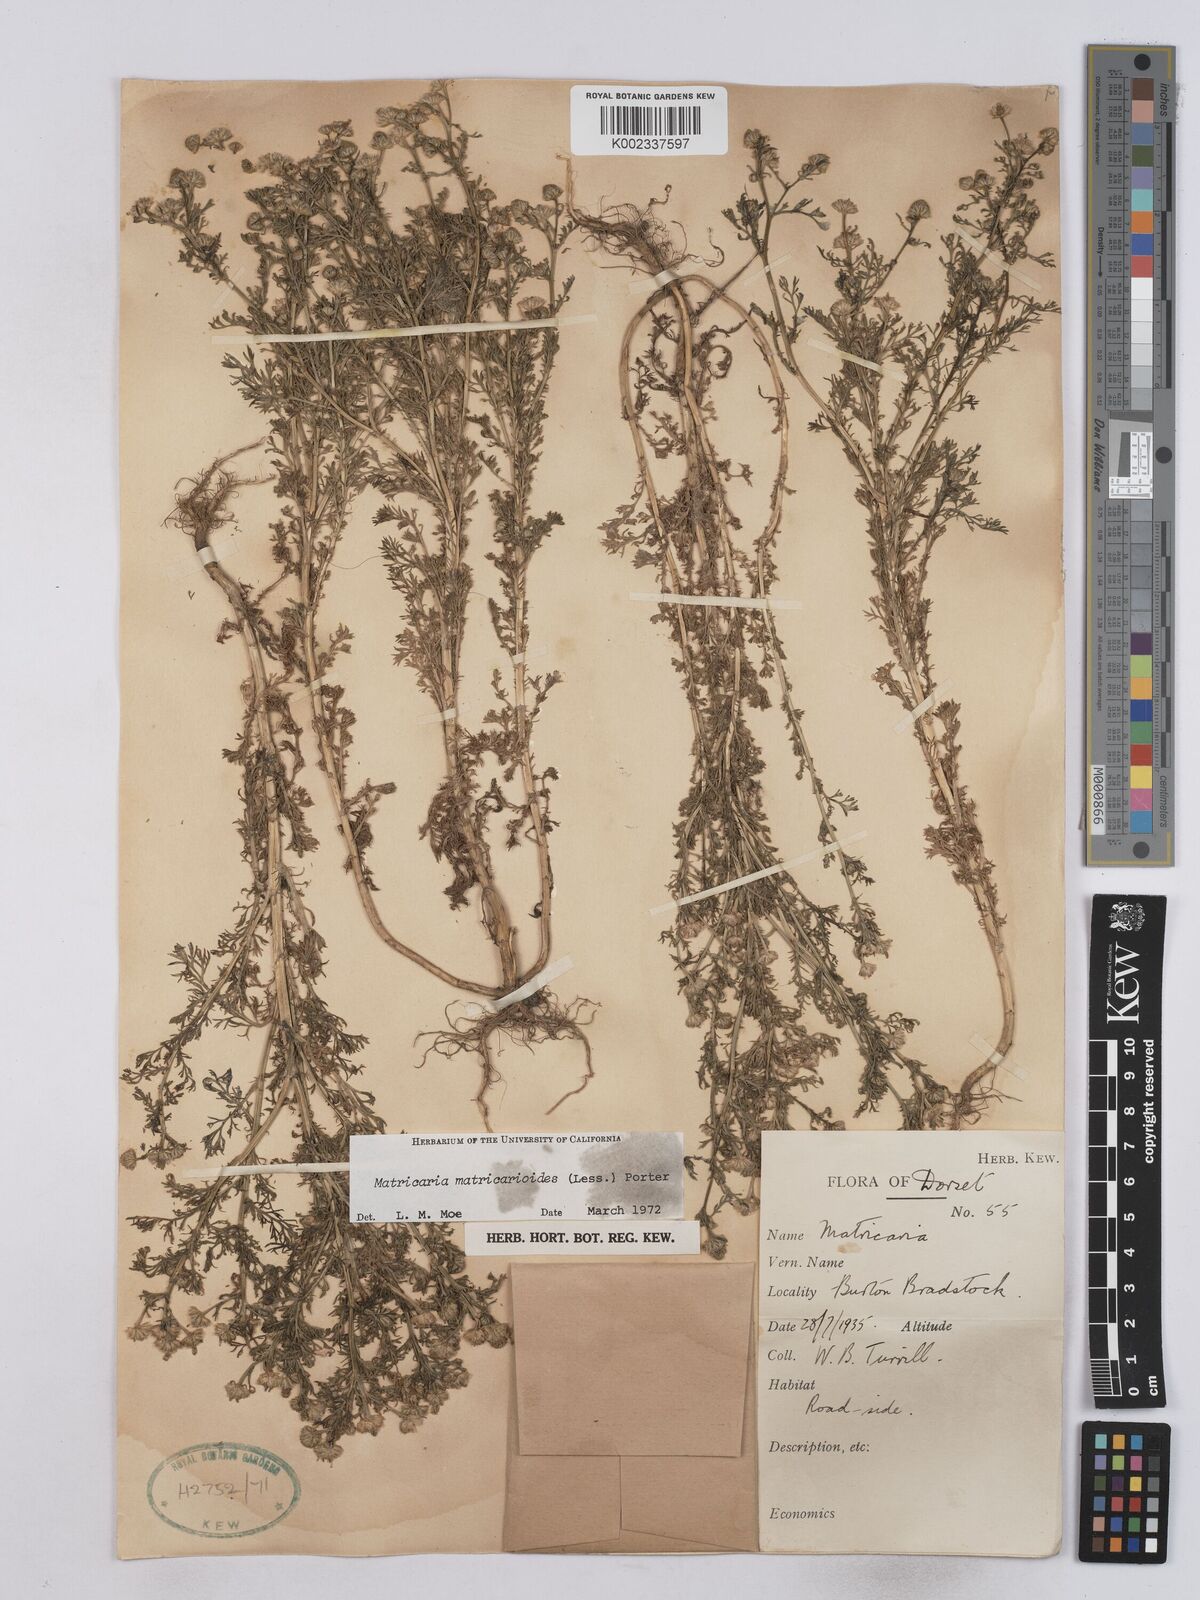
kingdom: Plantae
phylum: Tracheophyta
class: Magnoliopsida
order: Asterales
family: Asteraceae
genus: Matricaria
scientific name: Matricaria discoidea
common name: Disc mayweed
